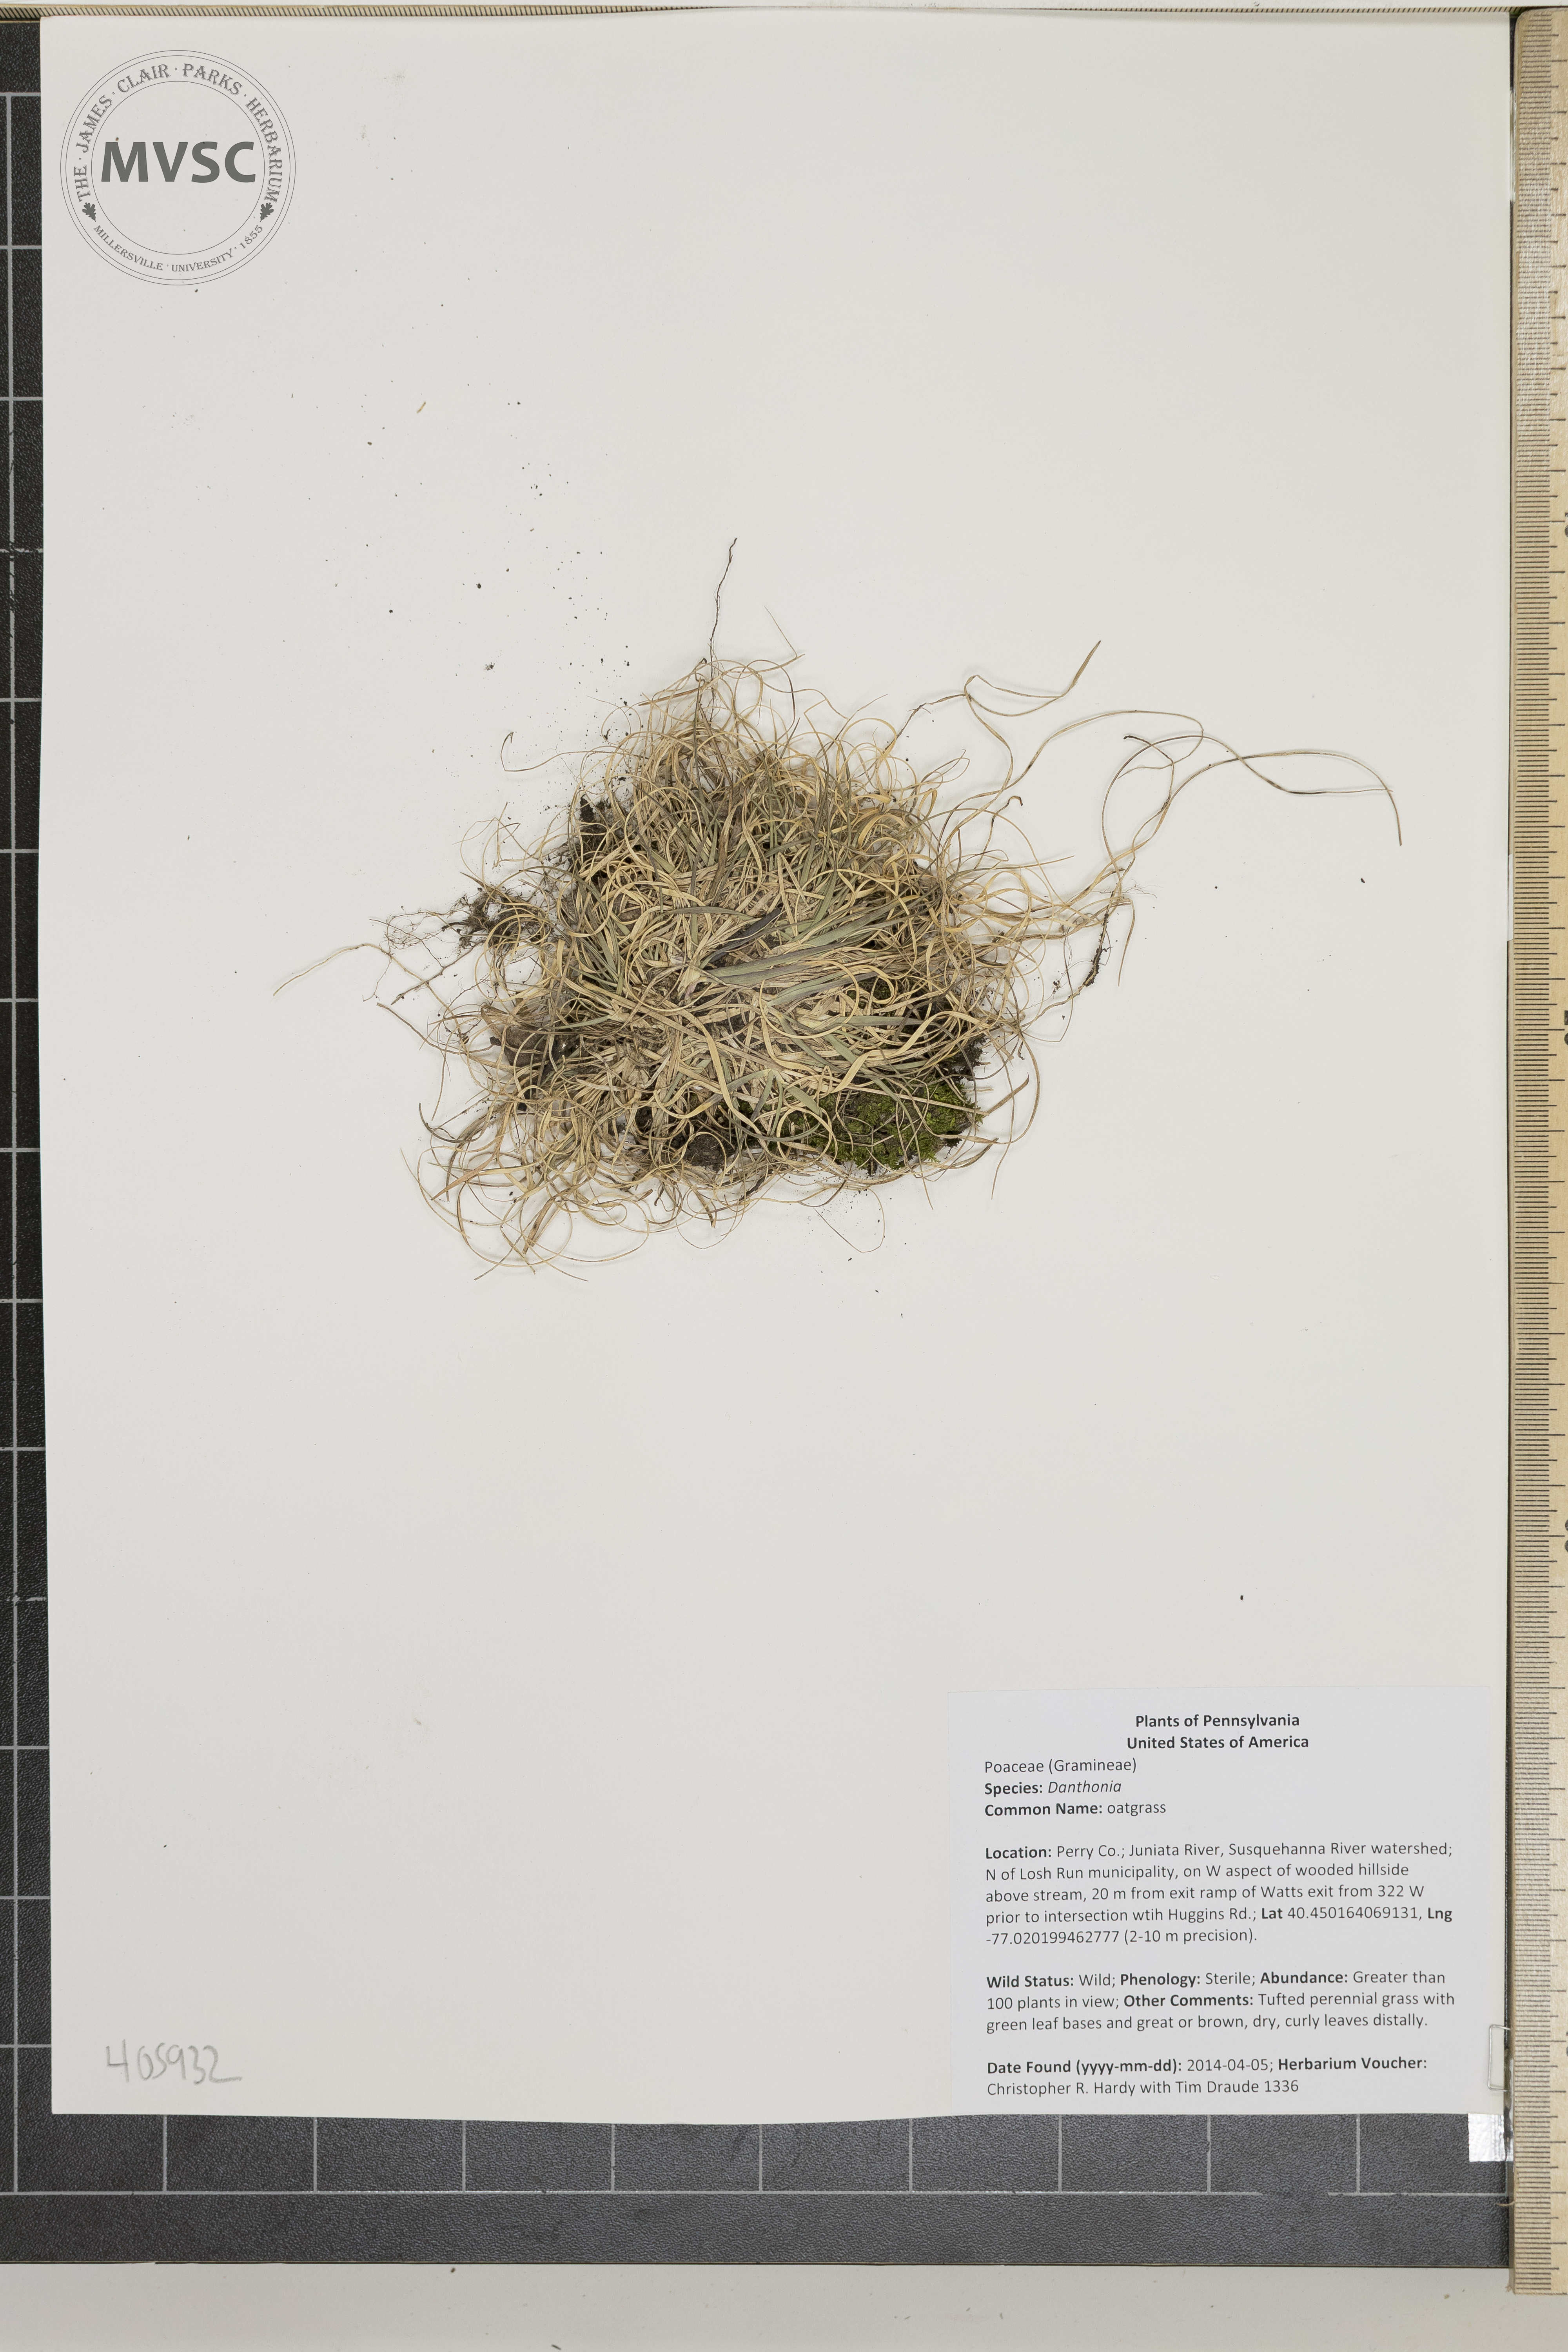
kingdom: Plantae
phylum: Tracheophyta
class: Liliopsida
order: Poales
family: Poaceae
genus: Danthonia
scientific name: Danthonia
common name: oatgrass
